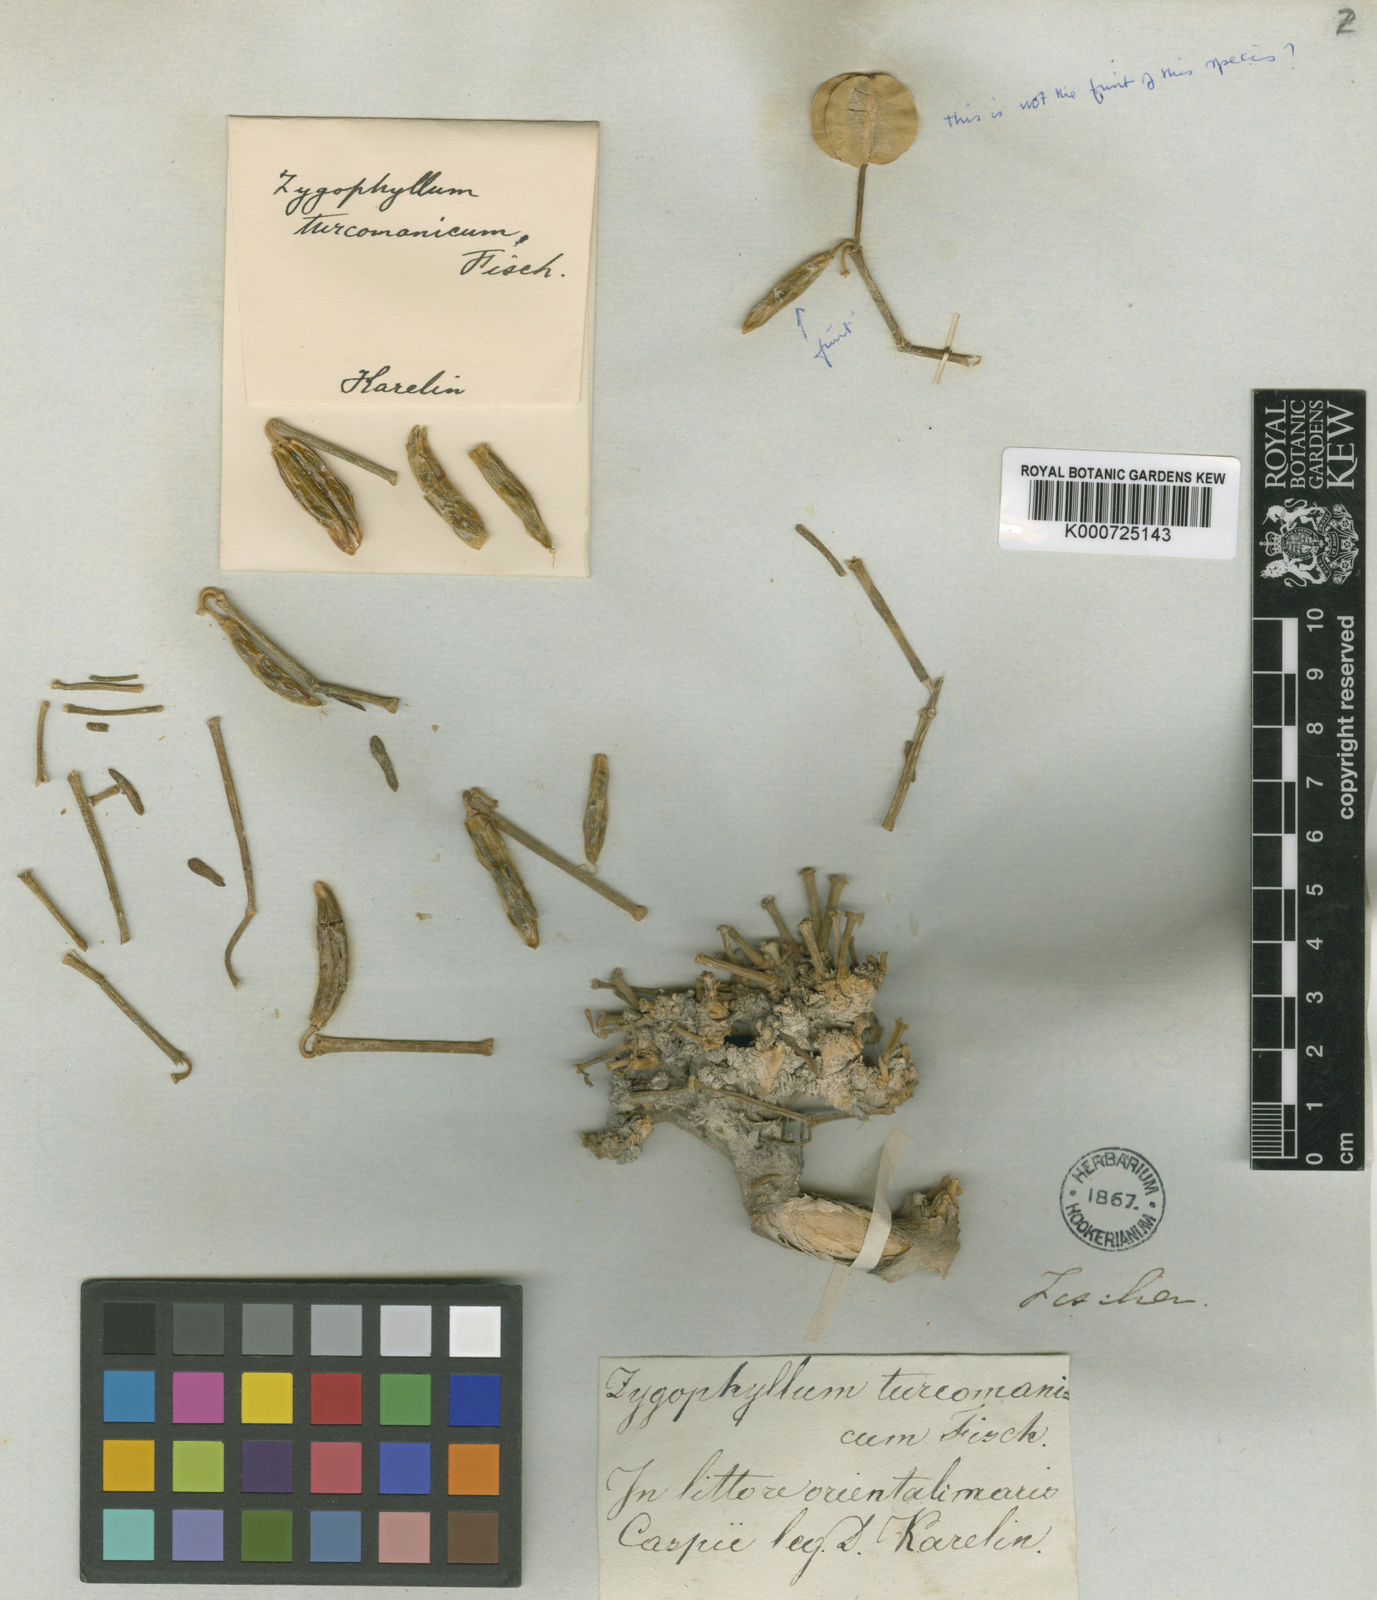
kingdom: Plantae
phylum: Tracheophyta
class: Magnoliopsida
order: Zygophyllales
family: Zygophyllaceae
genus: Zygophyllum
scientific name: Zygophyllum
